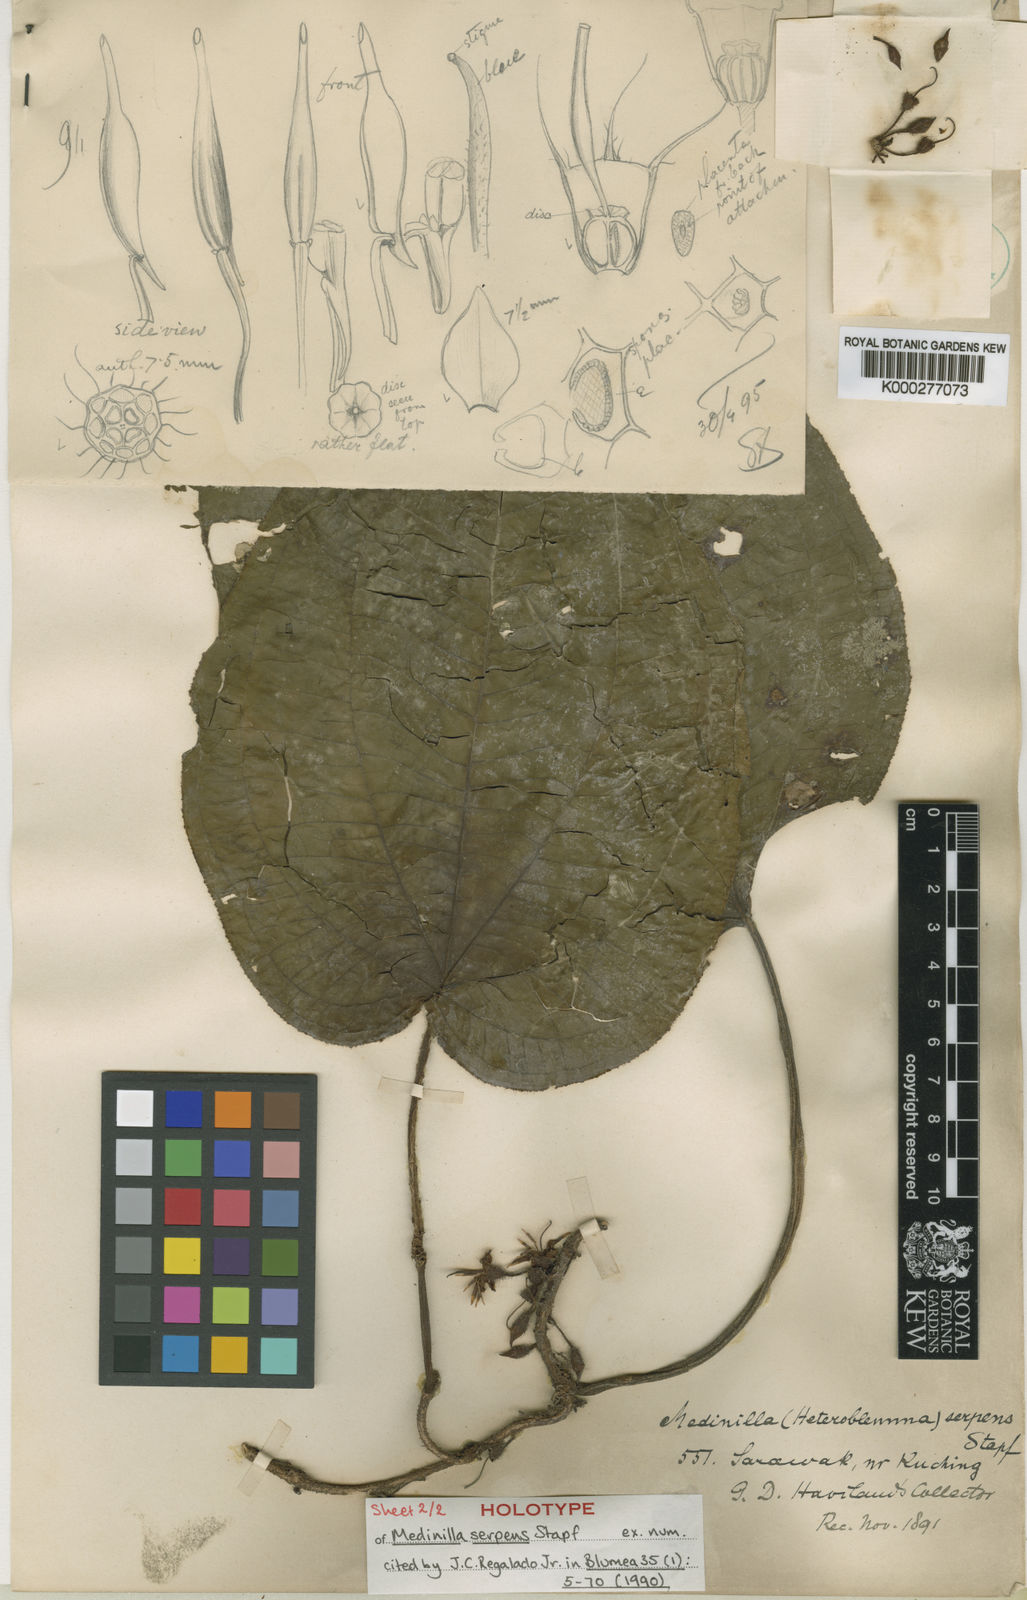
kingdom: Plantae
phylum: Tracheophyta
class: Magnoliopsida
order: Myrtales
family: Melastomataceae
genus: Heteroblemma
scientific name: Heteroblemma serpens
